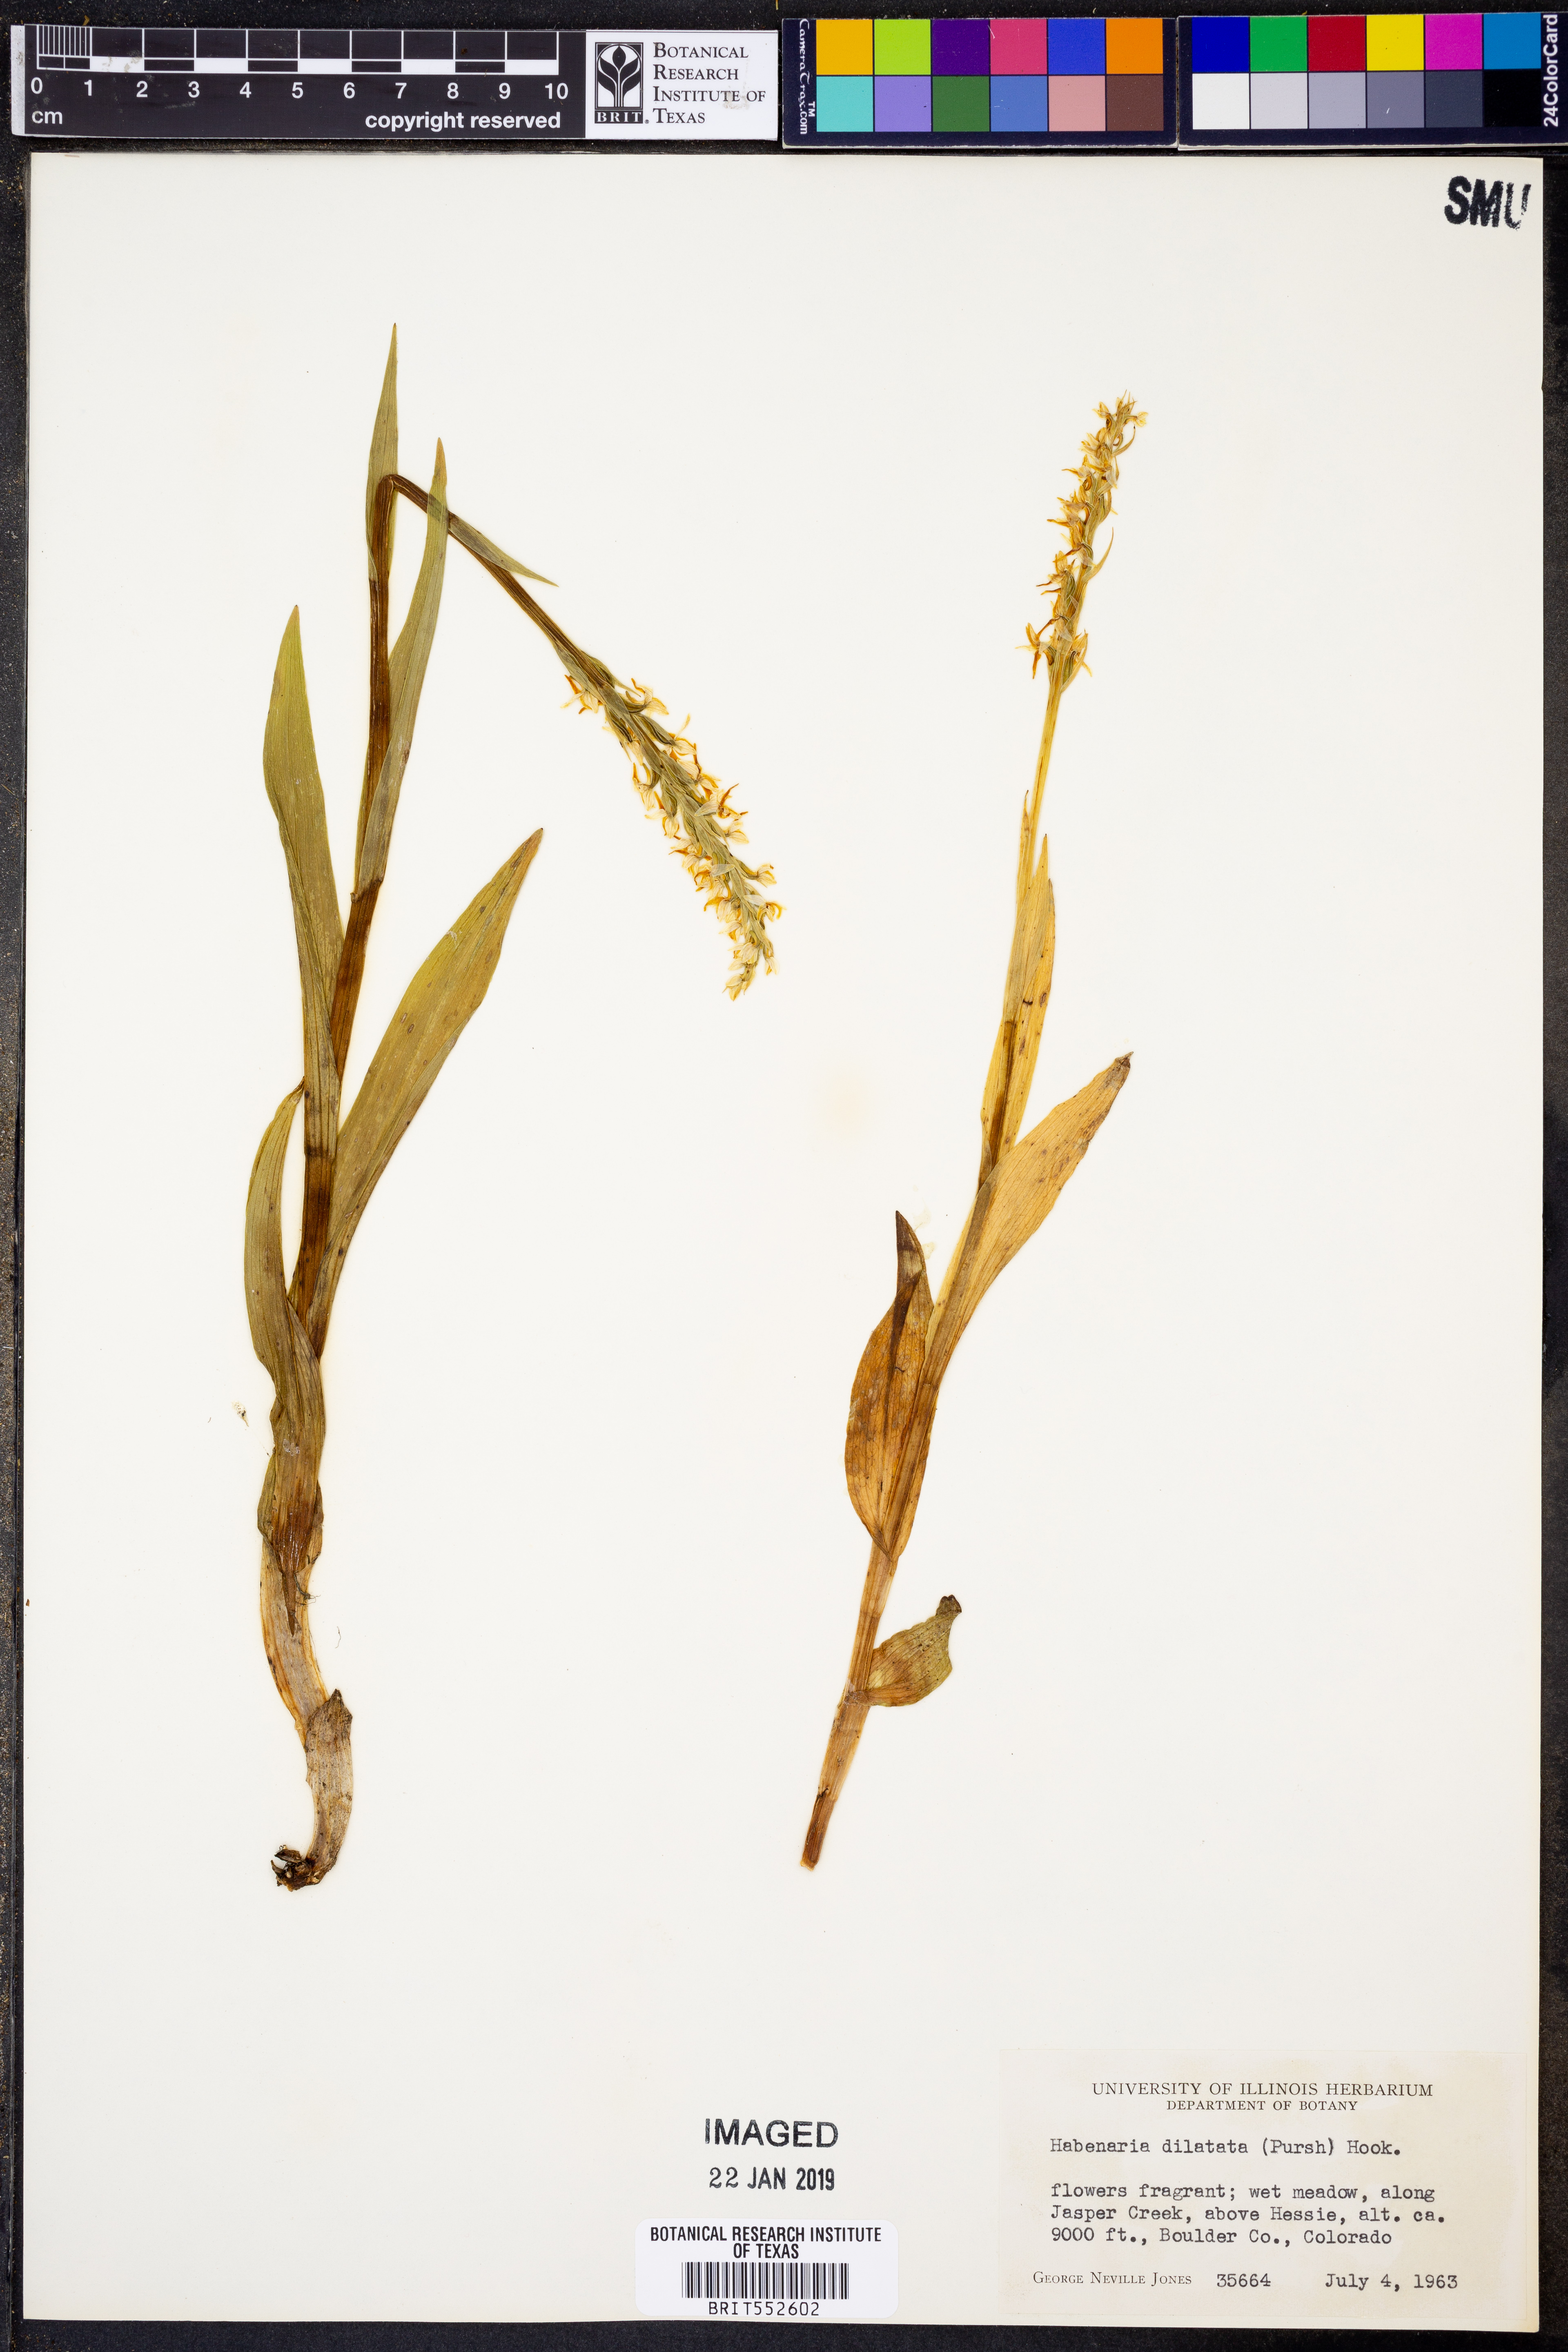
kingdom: Plantae
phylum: Tracheophyta
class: Liliopsida
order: Asparagales
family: Orchidaceae
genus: Platanthera
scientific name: Platanthera dilatata
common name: Bog candles
